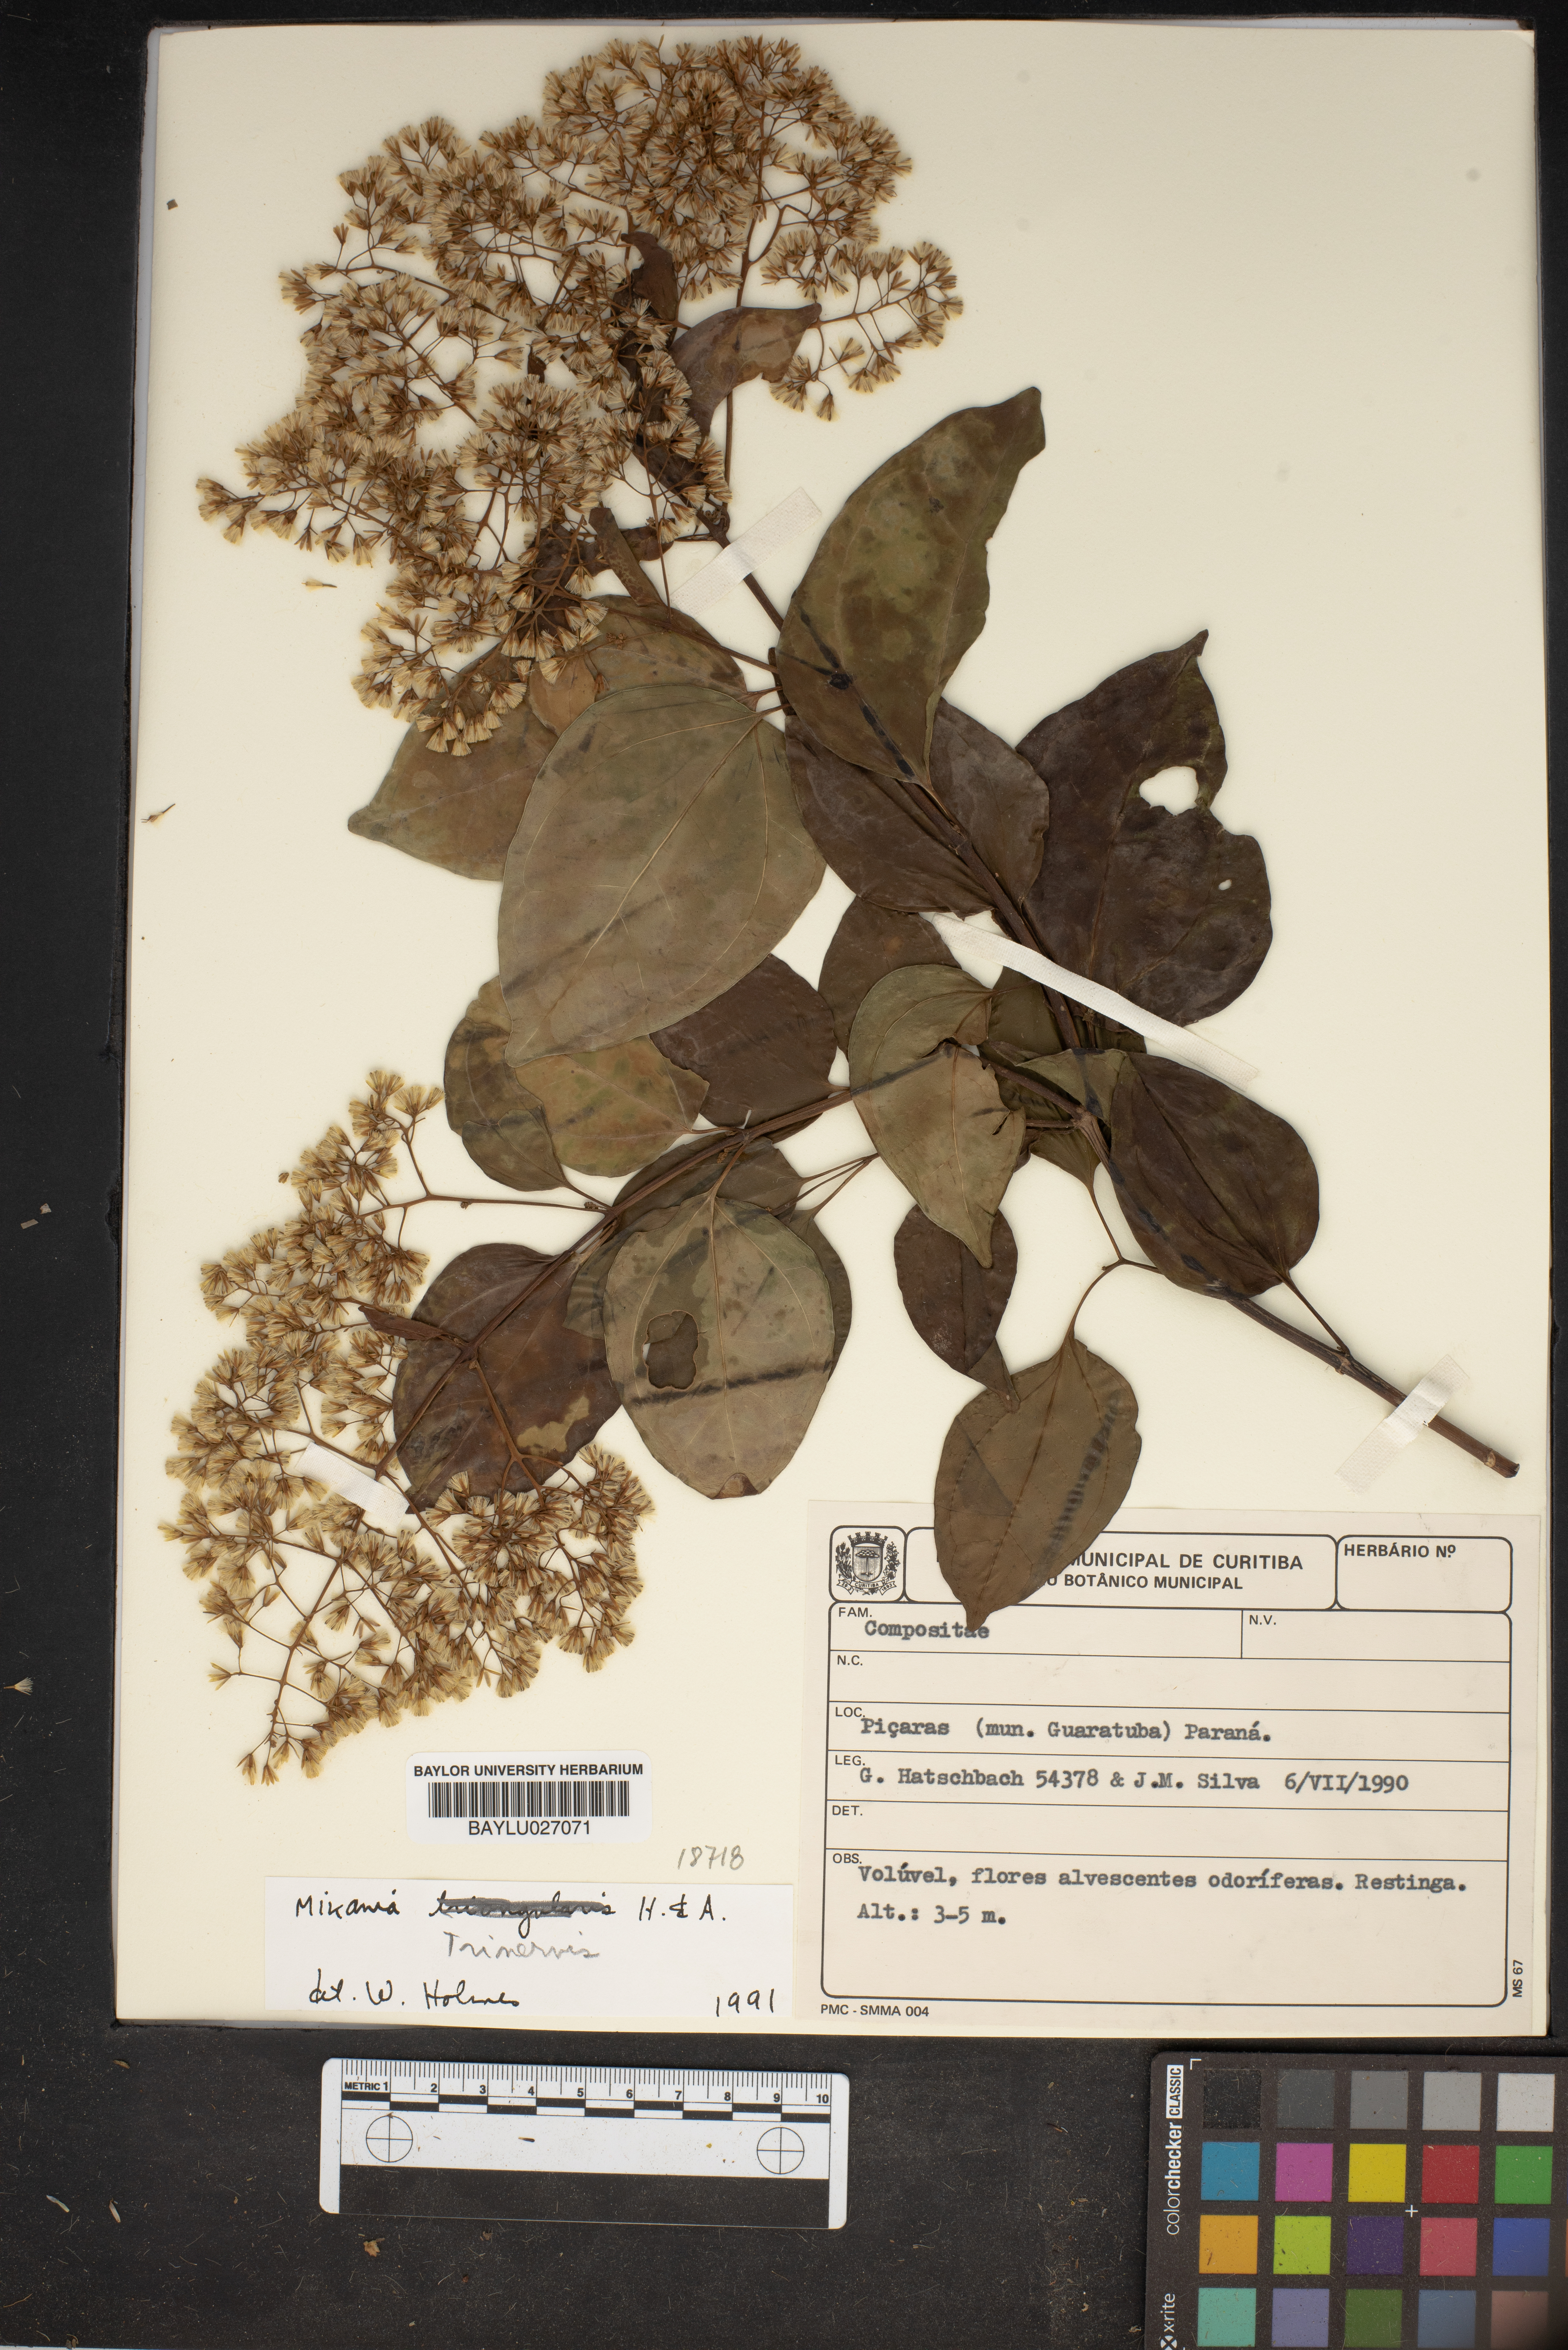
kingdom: Plantae
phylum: Tracheophyta
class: Magnoliopsida
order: Asterales
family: Asteraceae
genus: Mikania
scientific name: Mikania trinervis
